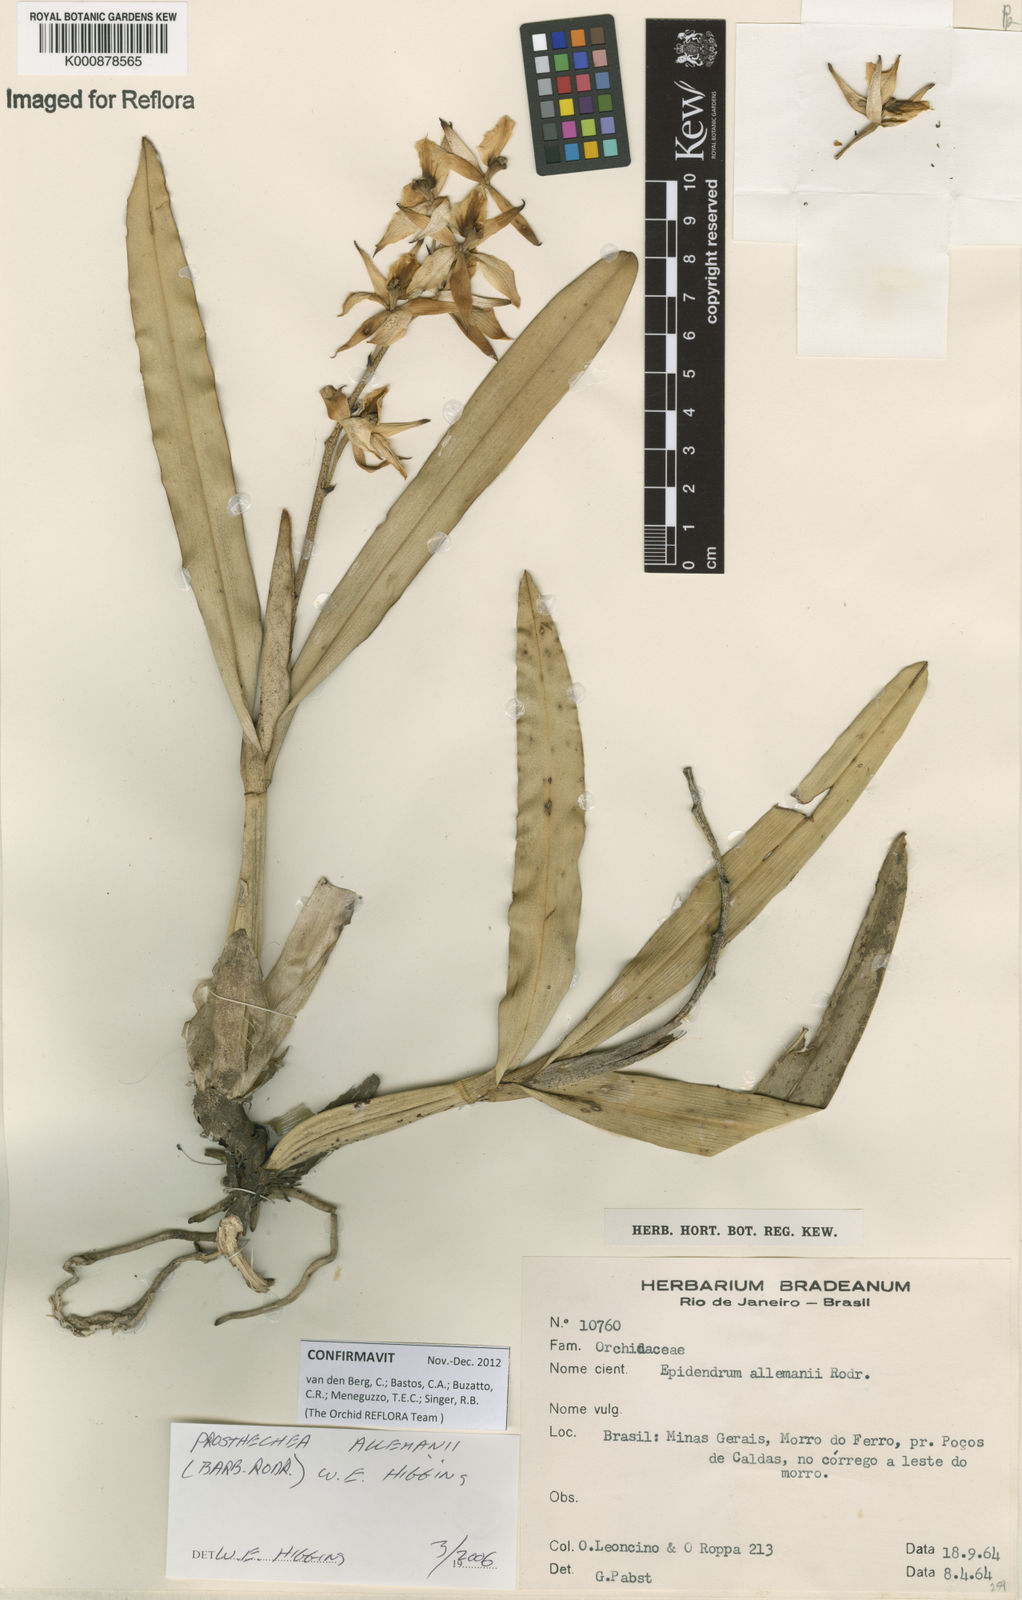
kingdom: Plantae
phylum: Tracheophyta
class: Liliopsida
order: Asparagales
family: Orchidaceae
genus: Prosthechea
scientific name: Prosthechea allemanii
